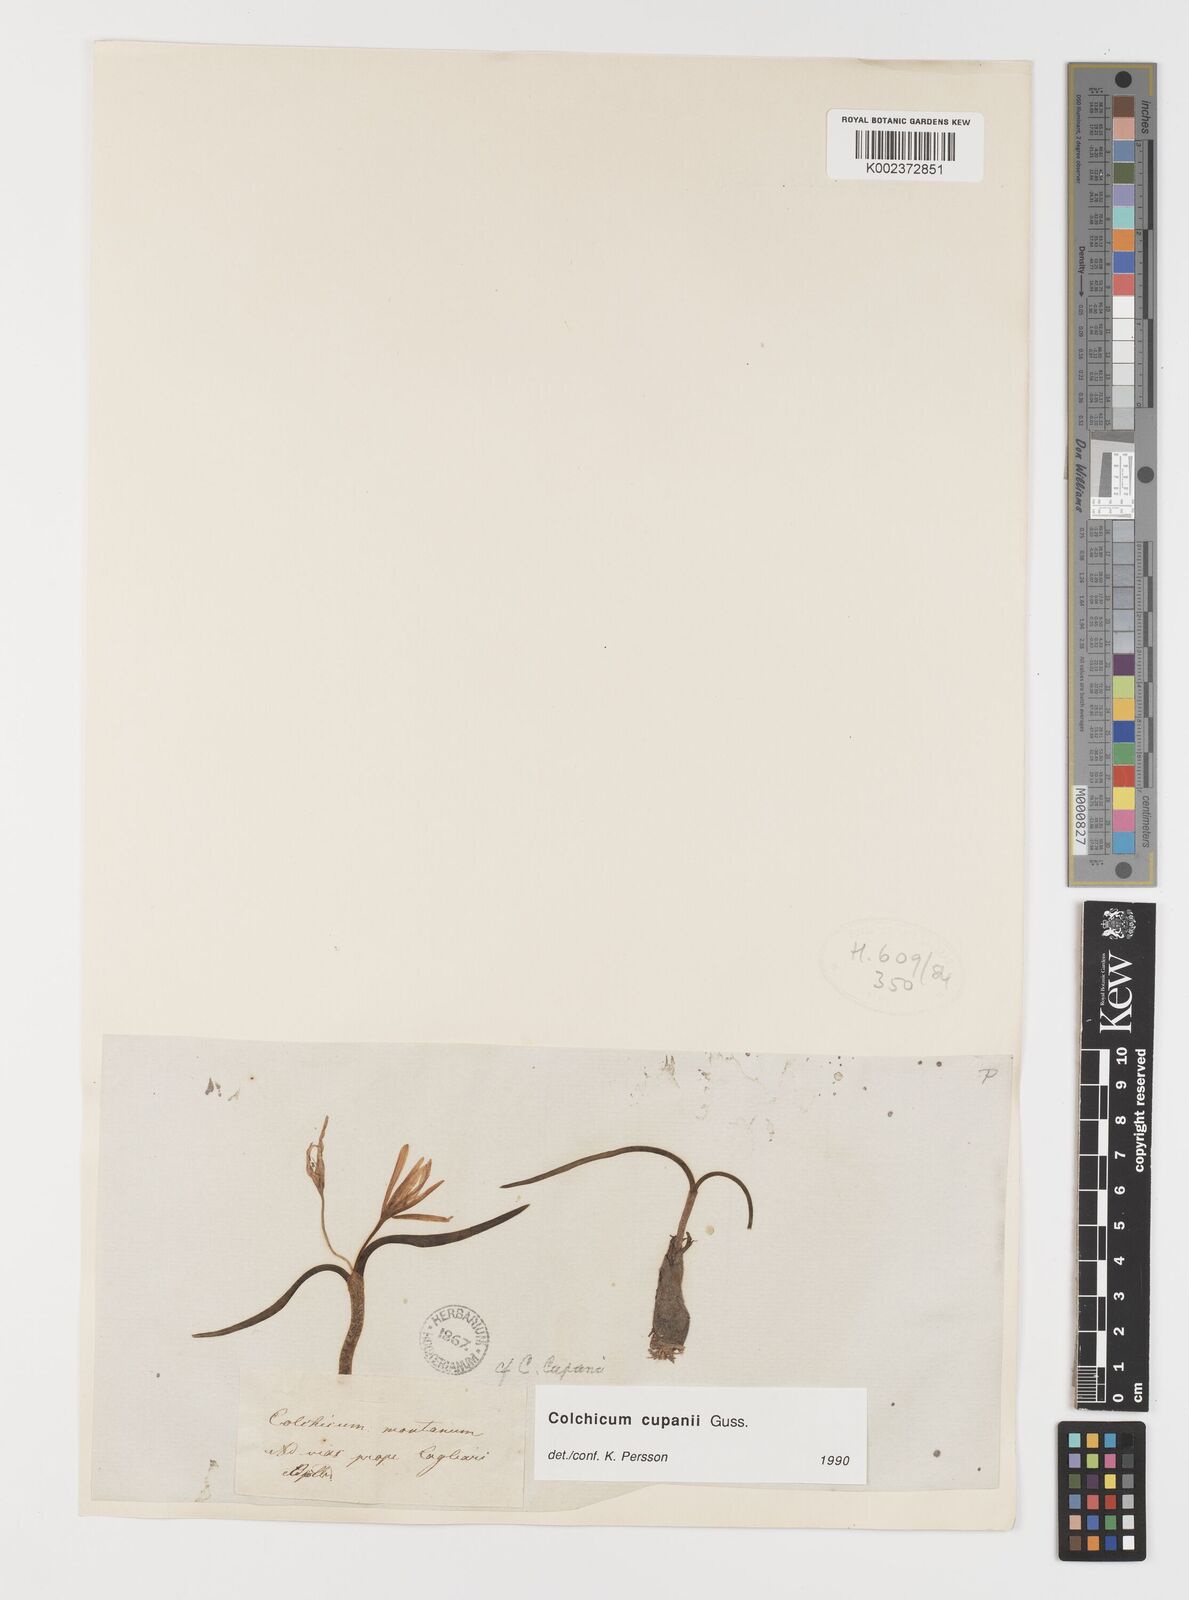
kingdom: Plantae
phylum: Tracheophyta
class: Liliopsida
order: Liliales
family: Colchicaceae
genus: Colchicum
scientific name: Colchicum cupanii
